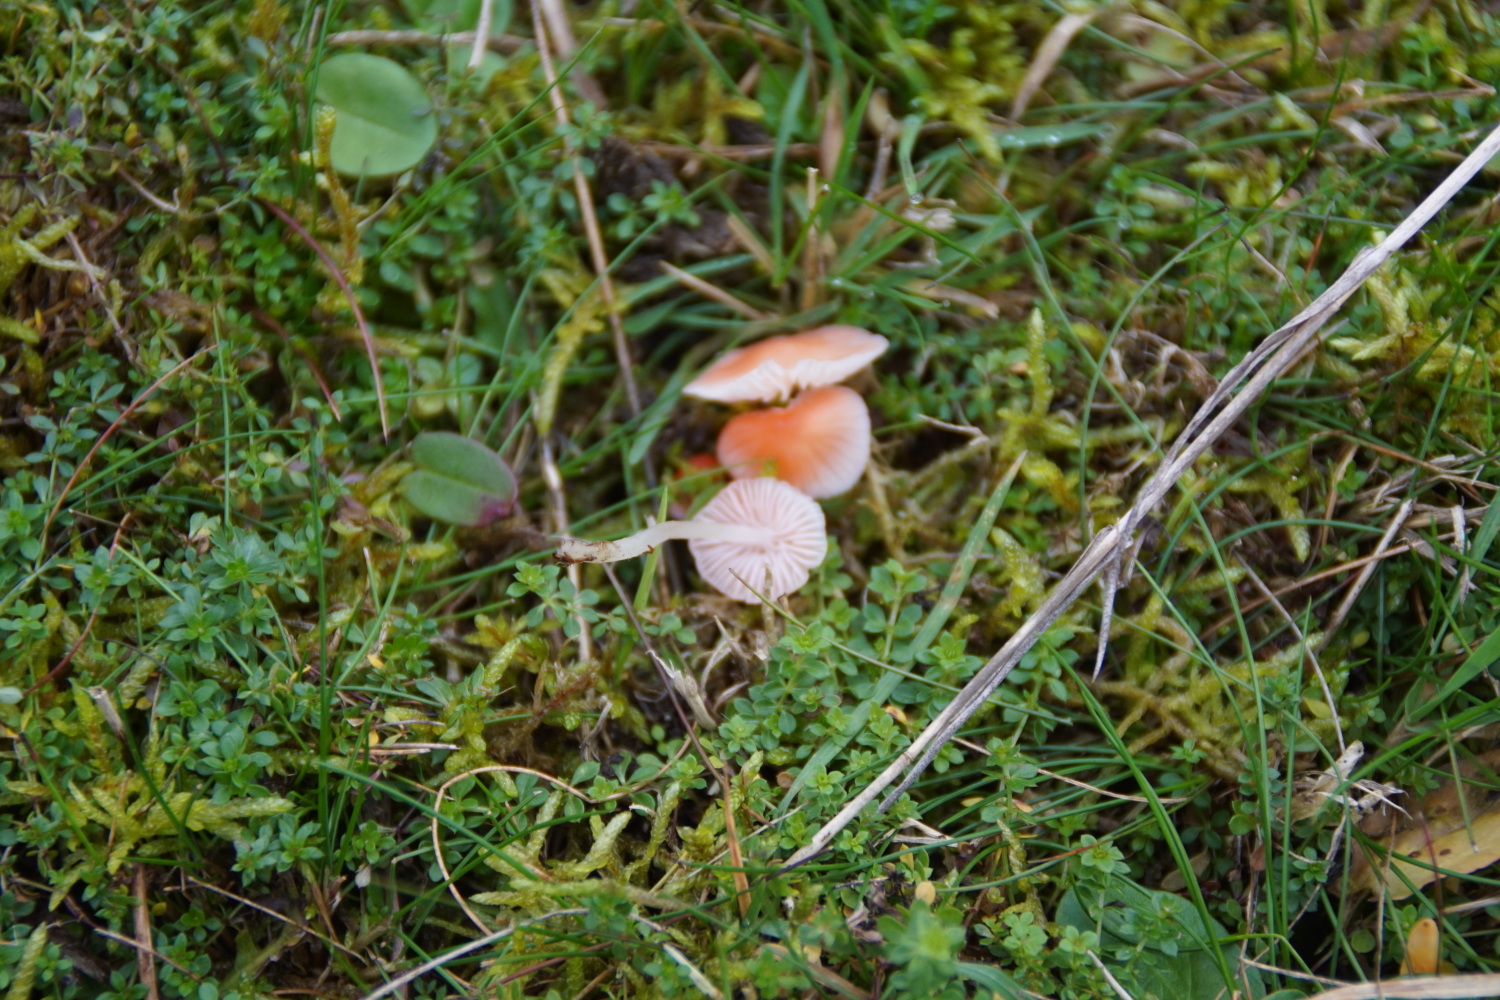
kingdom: Fungi
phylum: Basidiomycota
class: Agaricomycetes
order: Agaricales
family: Mycenaceae
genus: Atheniella
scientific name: Atheniella adonis
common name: rønnerød huesvamp
